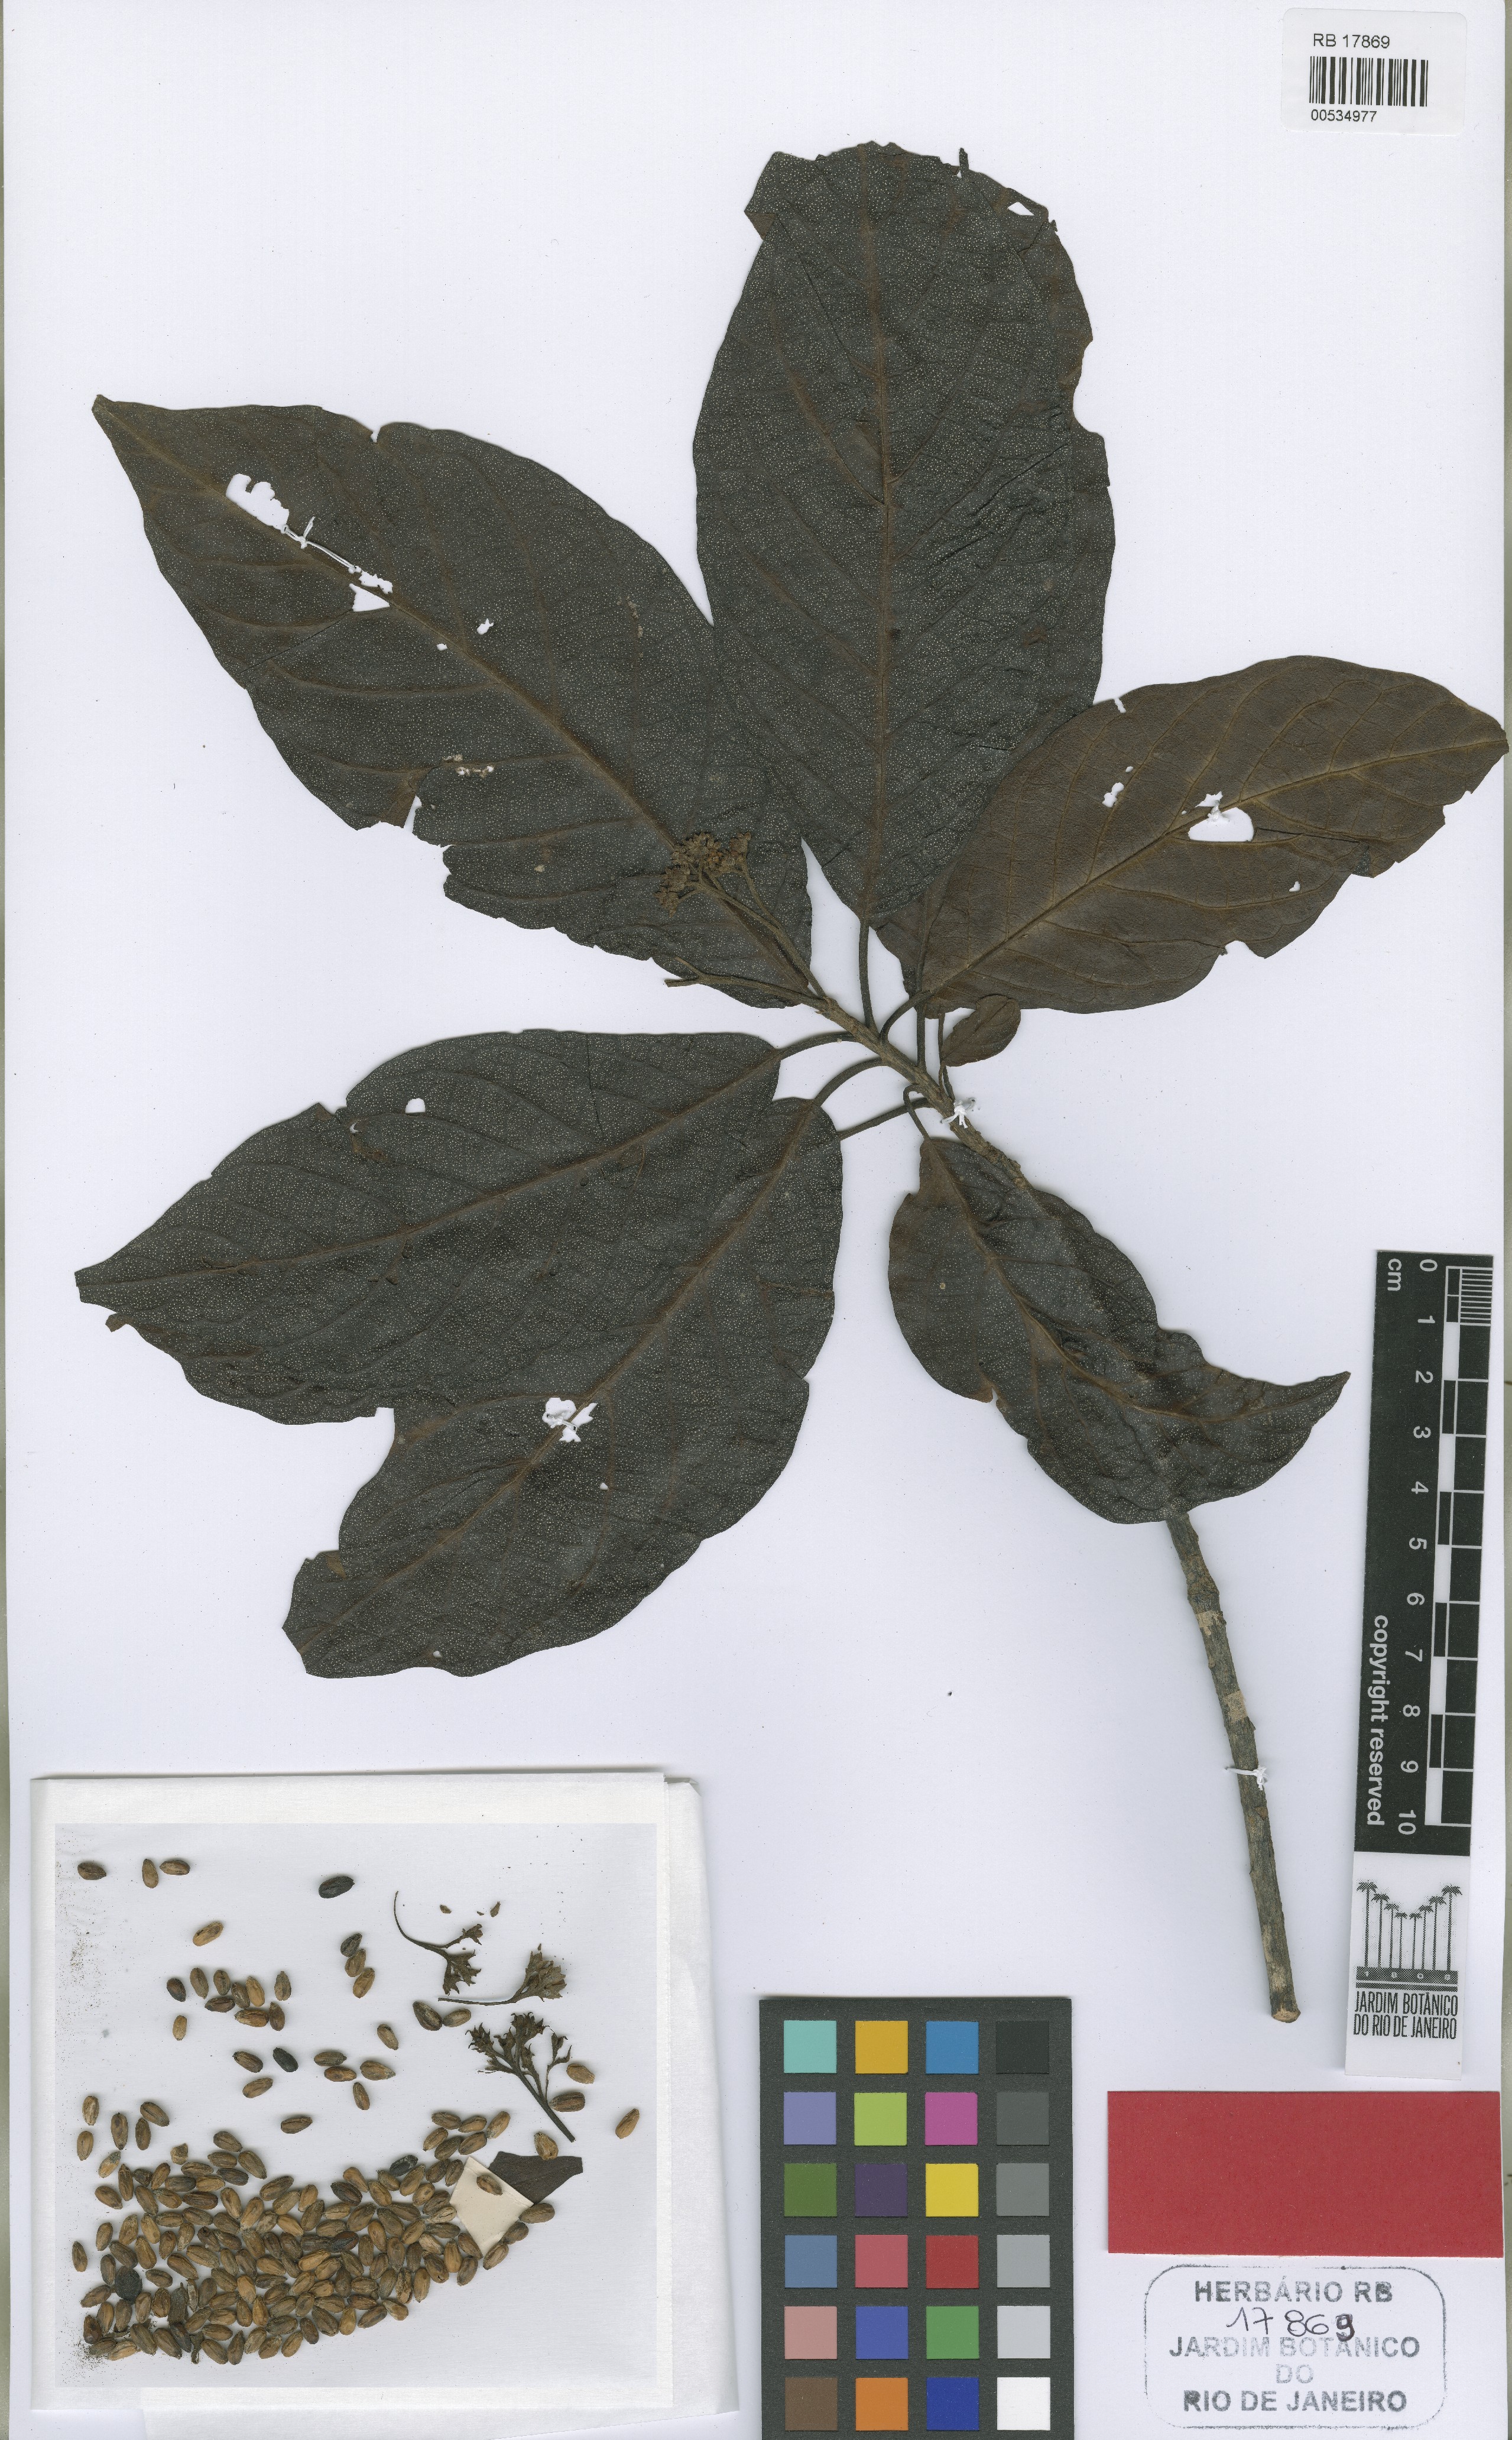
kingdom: Plantae
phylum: Tracheophyta
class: Magnoliopsida
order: Boraginales
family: Ehretiaceae
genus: Lepidocordia
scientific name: Lepidocordia punctata
